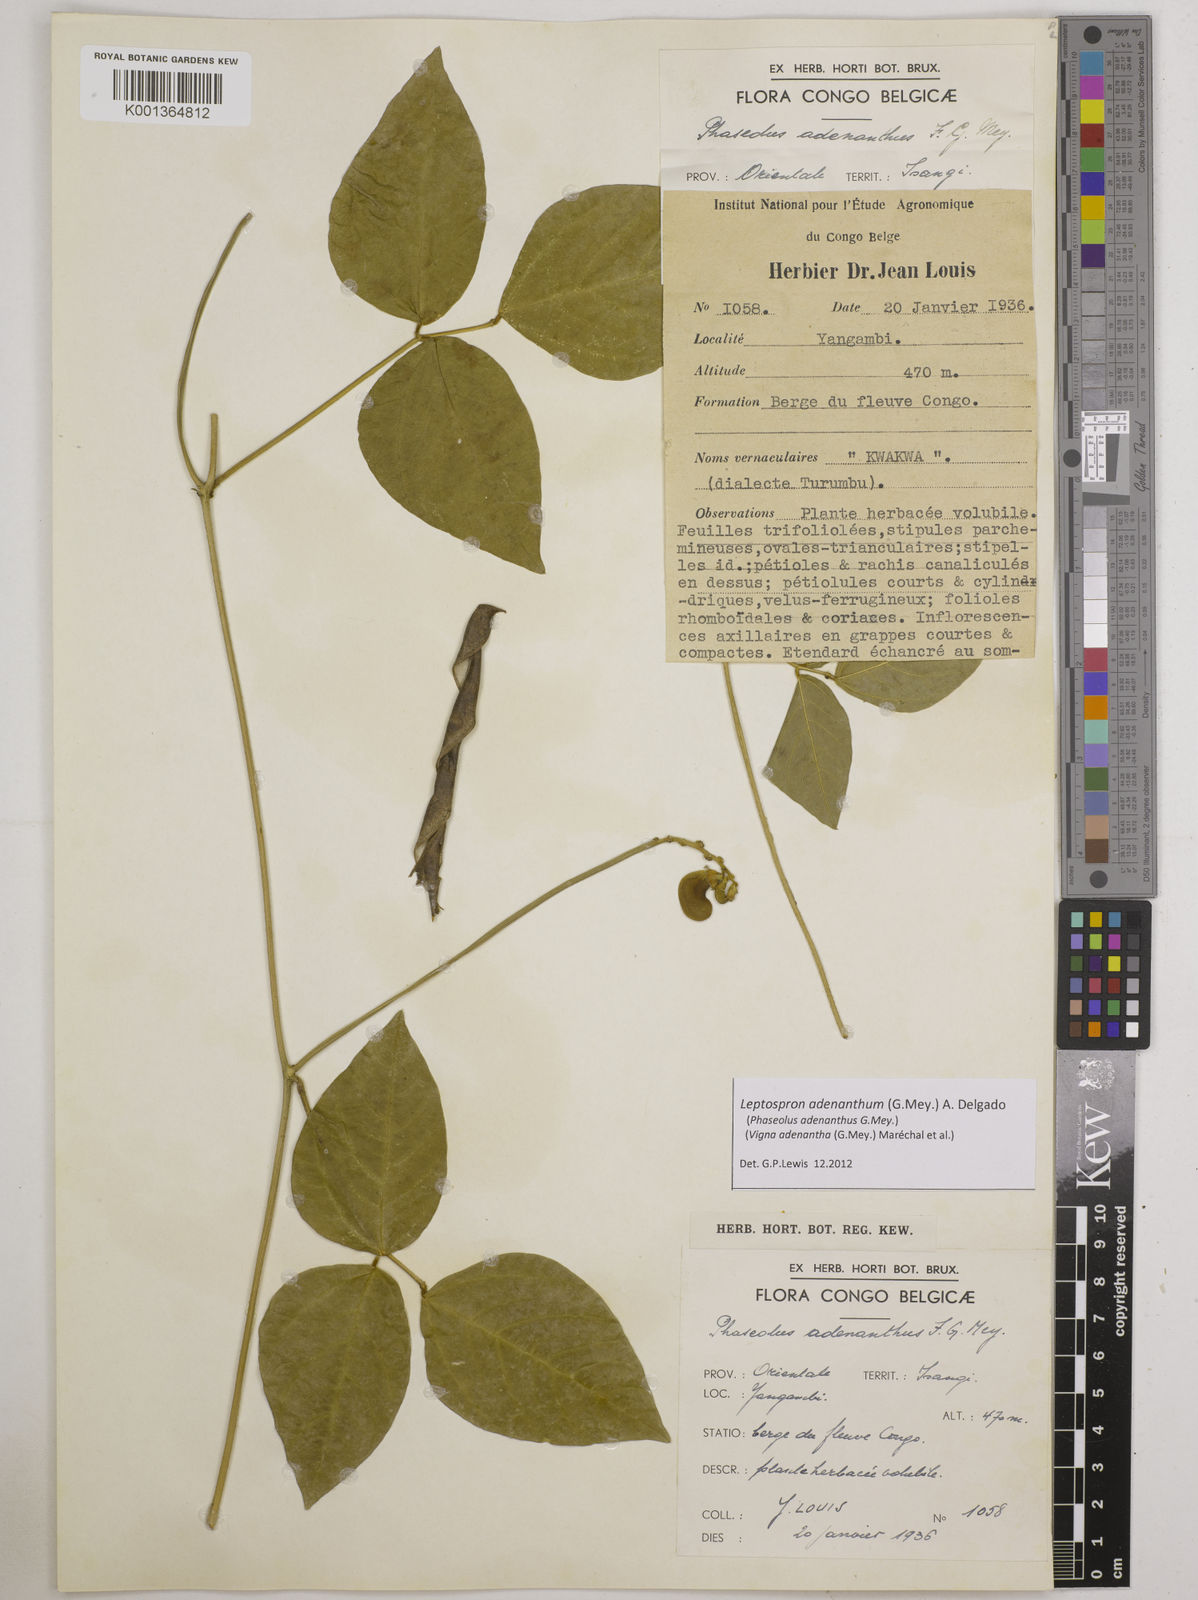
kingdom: Plantae
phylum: Tracheophyta
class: Magnoliopsida
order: Fabales
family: Fabaceae
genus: Leptospron
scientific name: Leptospron adenanthum
